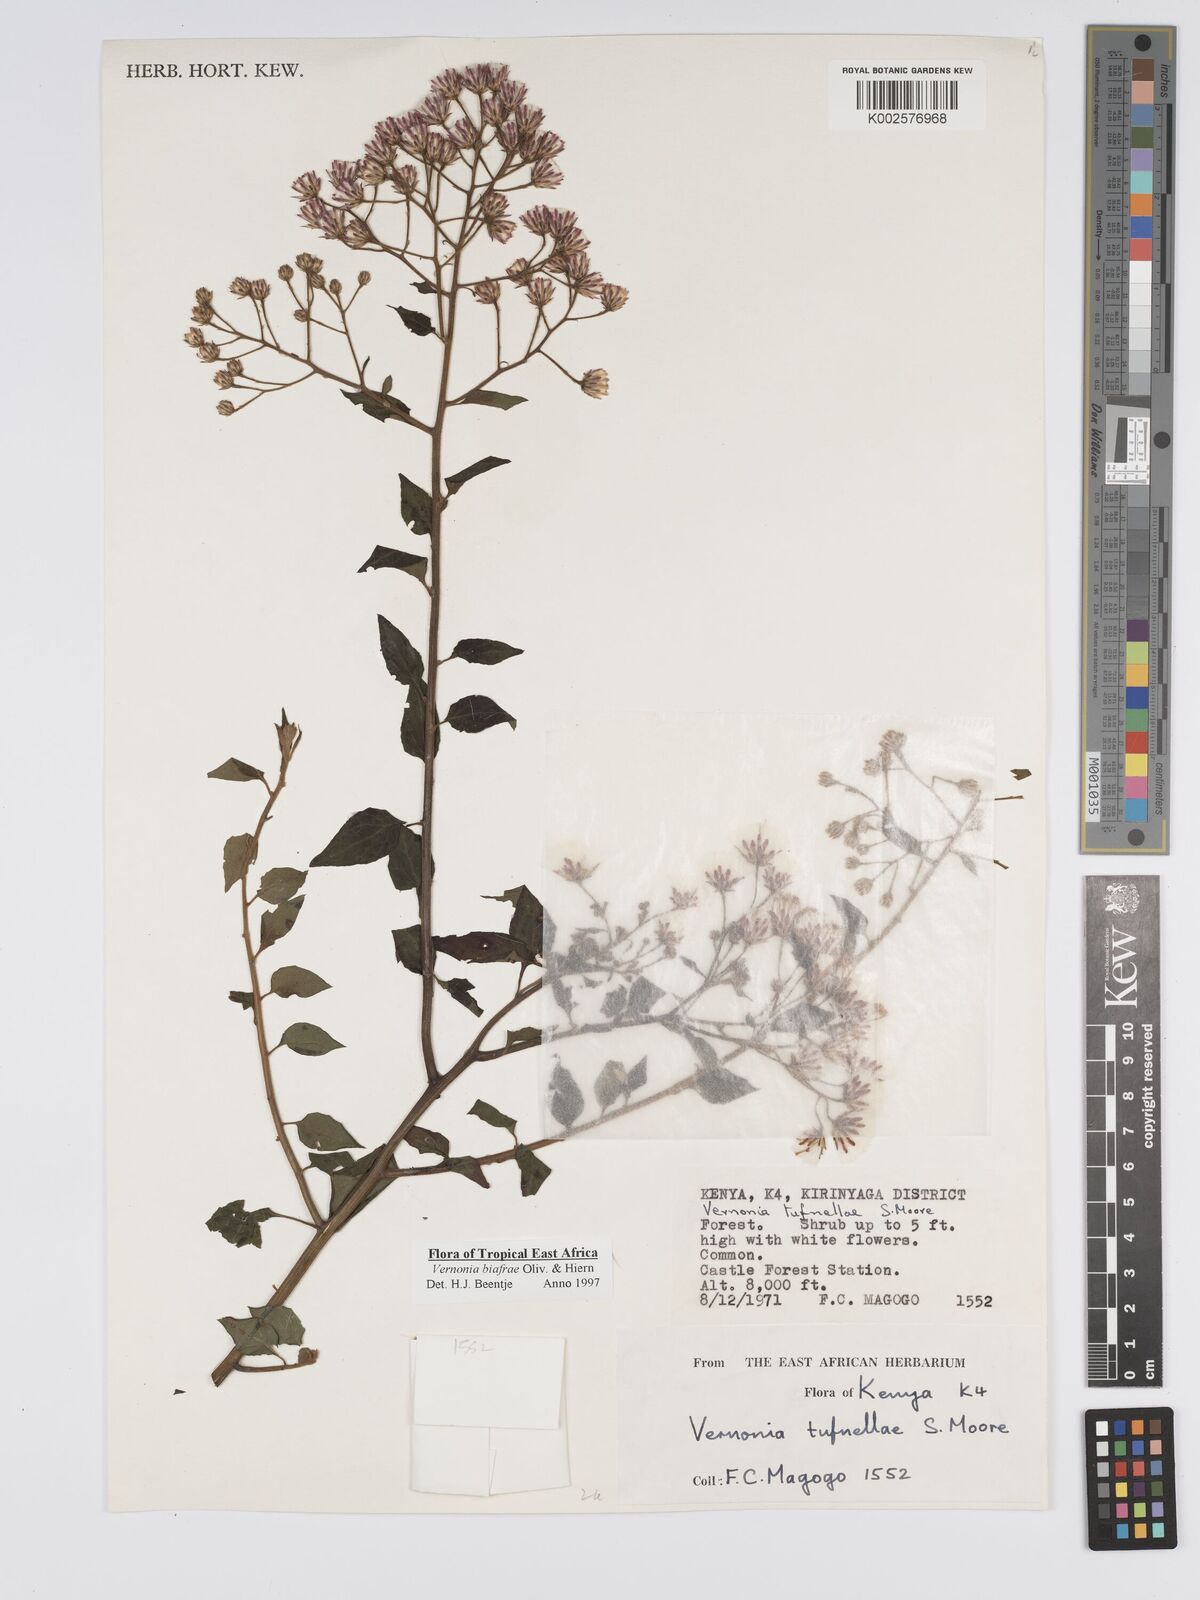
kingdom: Plantae
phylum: Tracheophyta
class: Magnoliopsida
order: Asterales
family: Asteraceae
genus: Distephanus
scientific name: Distephanus biafrae
